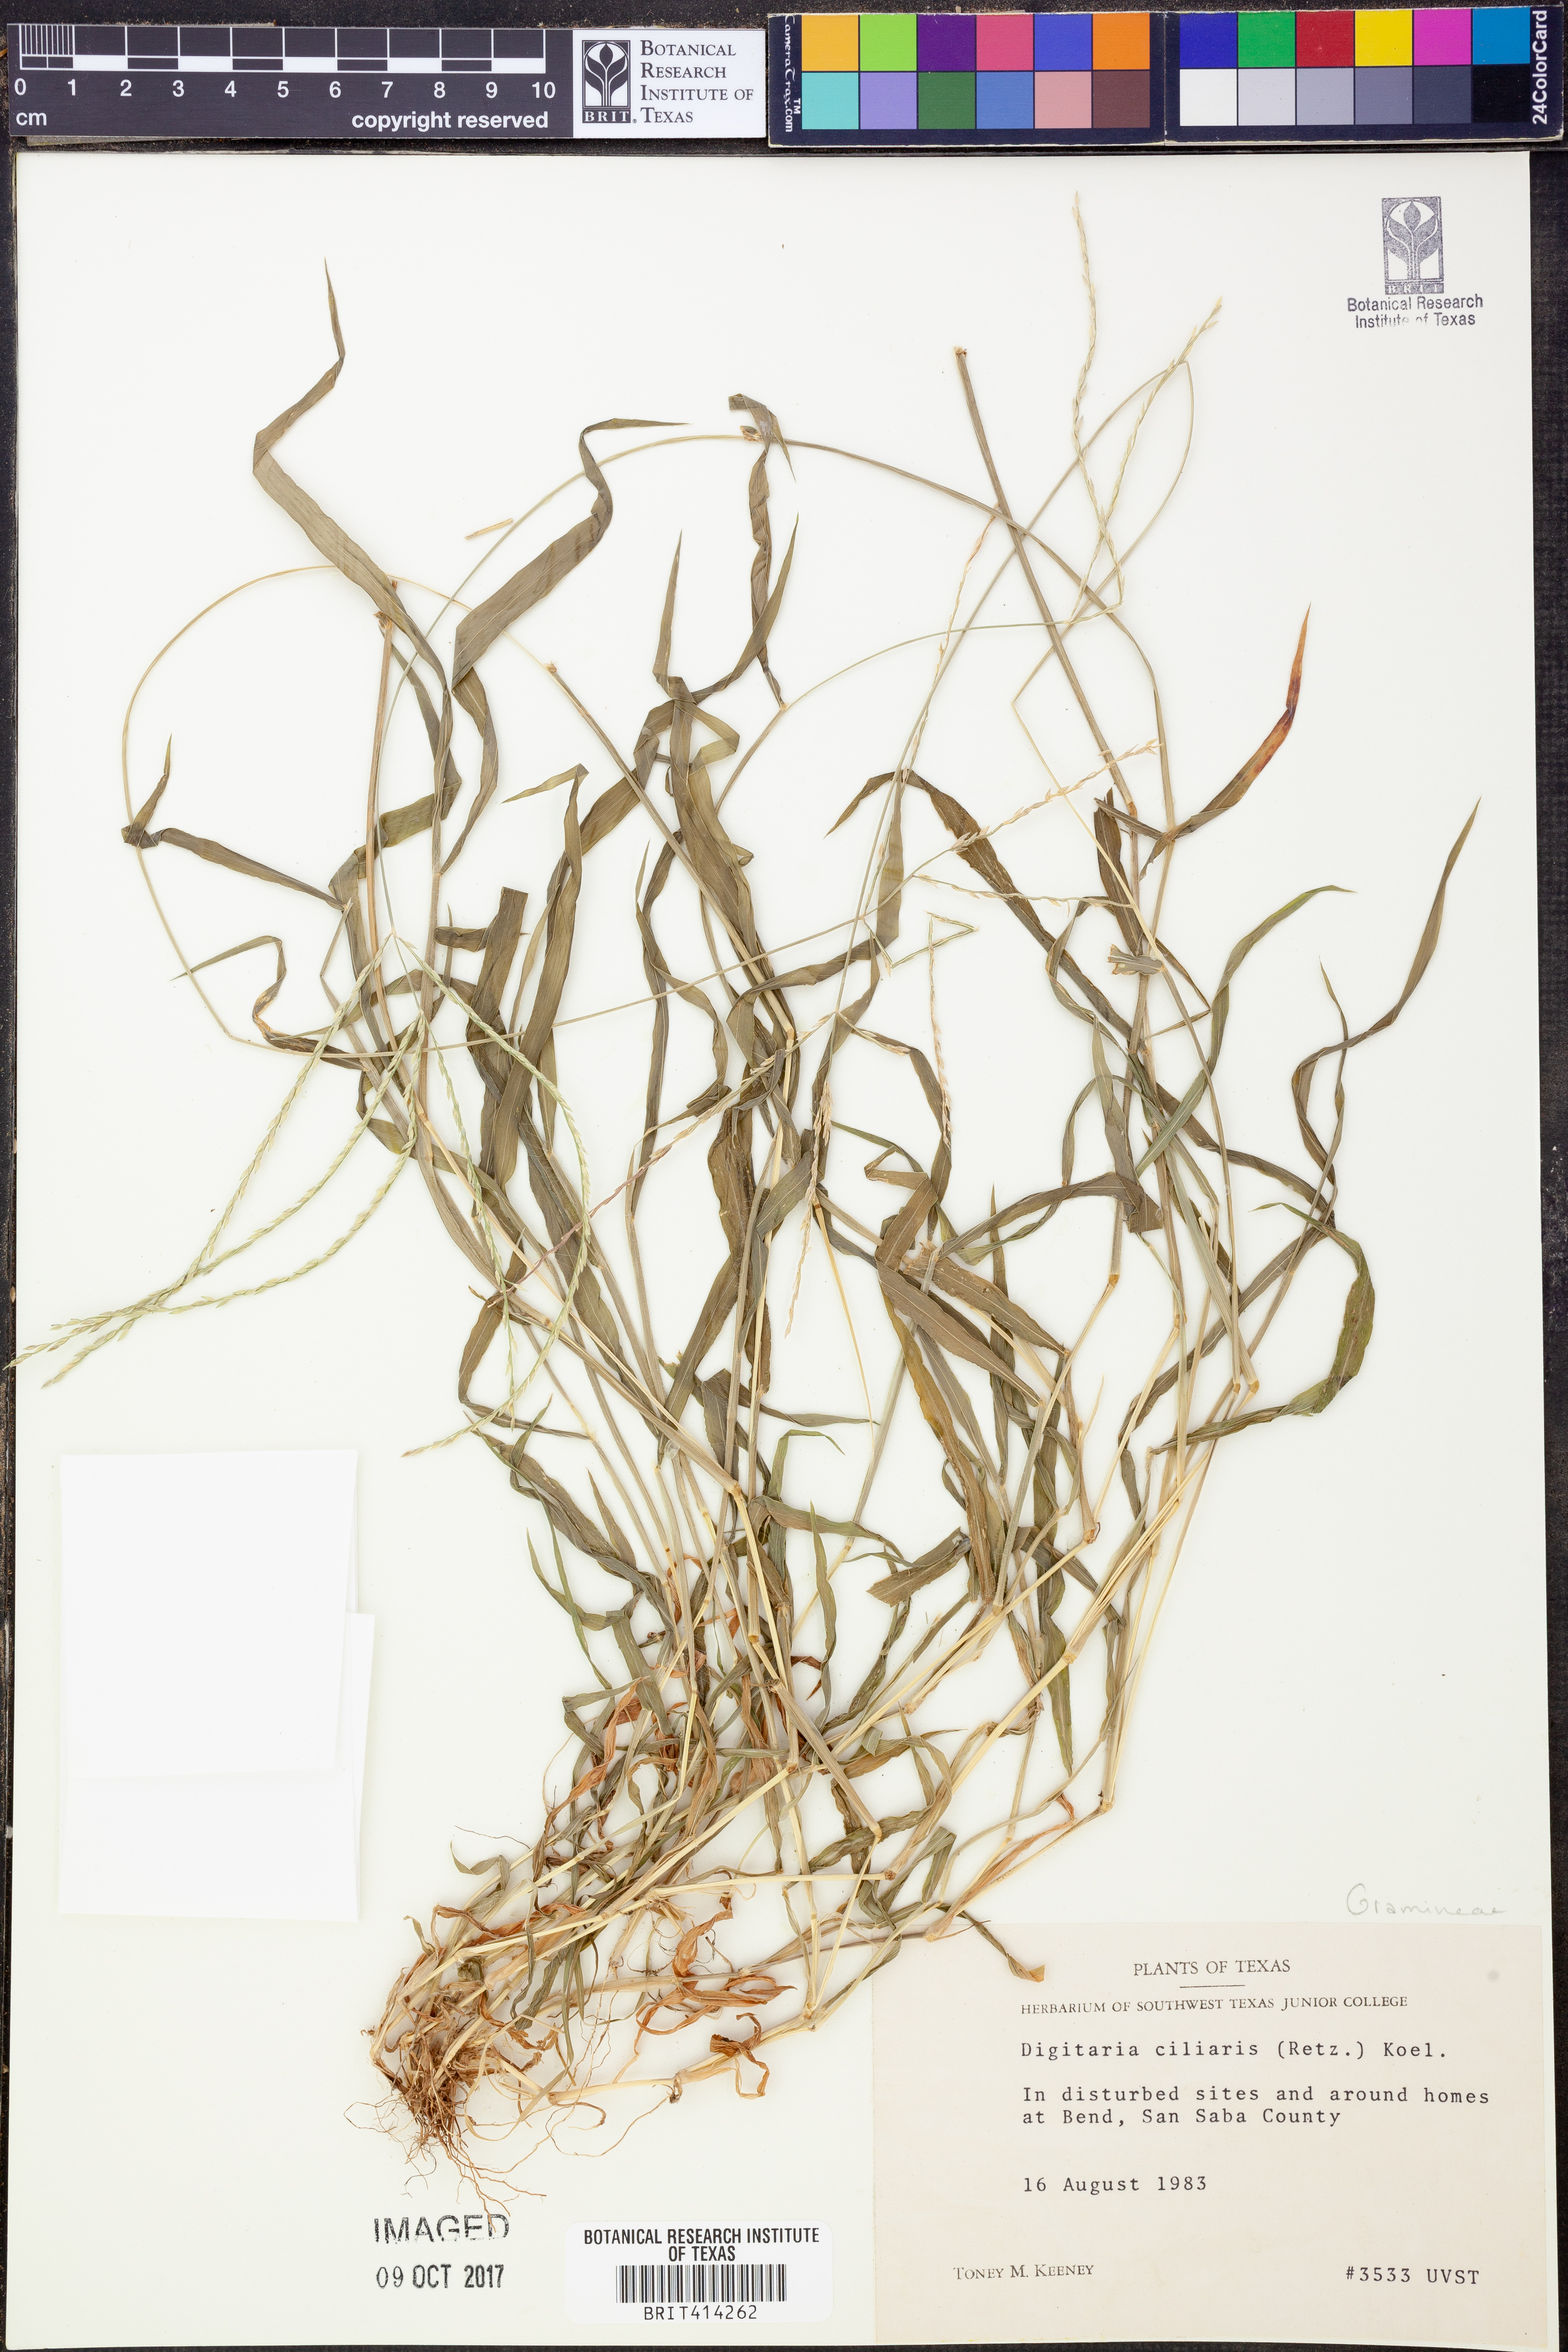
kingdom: Plantae
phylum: Tracheophyta
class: Liliopsida
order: Poales
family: Poaceae
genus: Digitaria
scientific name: Digitaria ciliaris
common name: Tropical finger-grass
